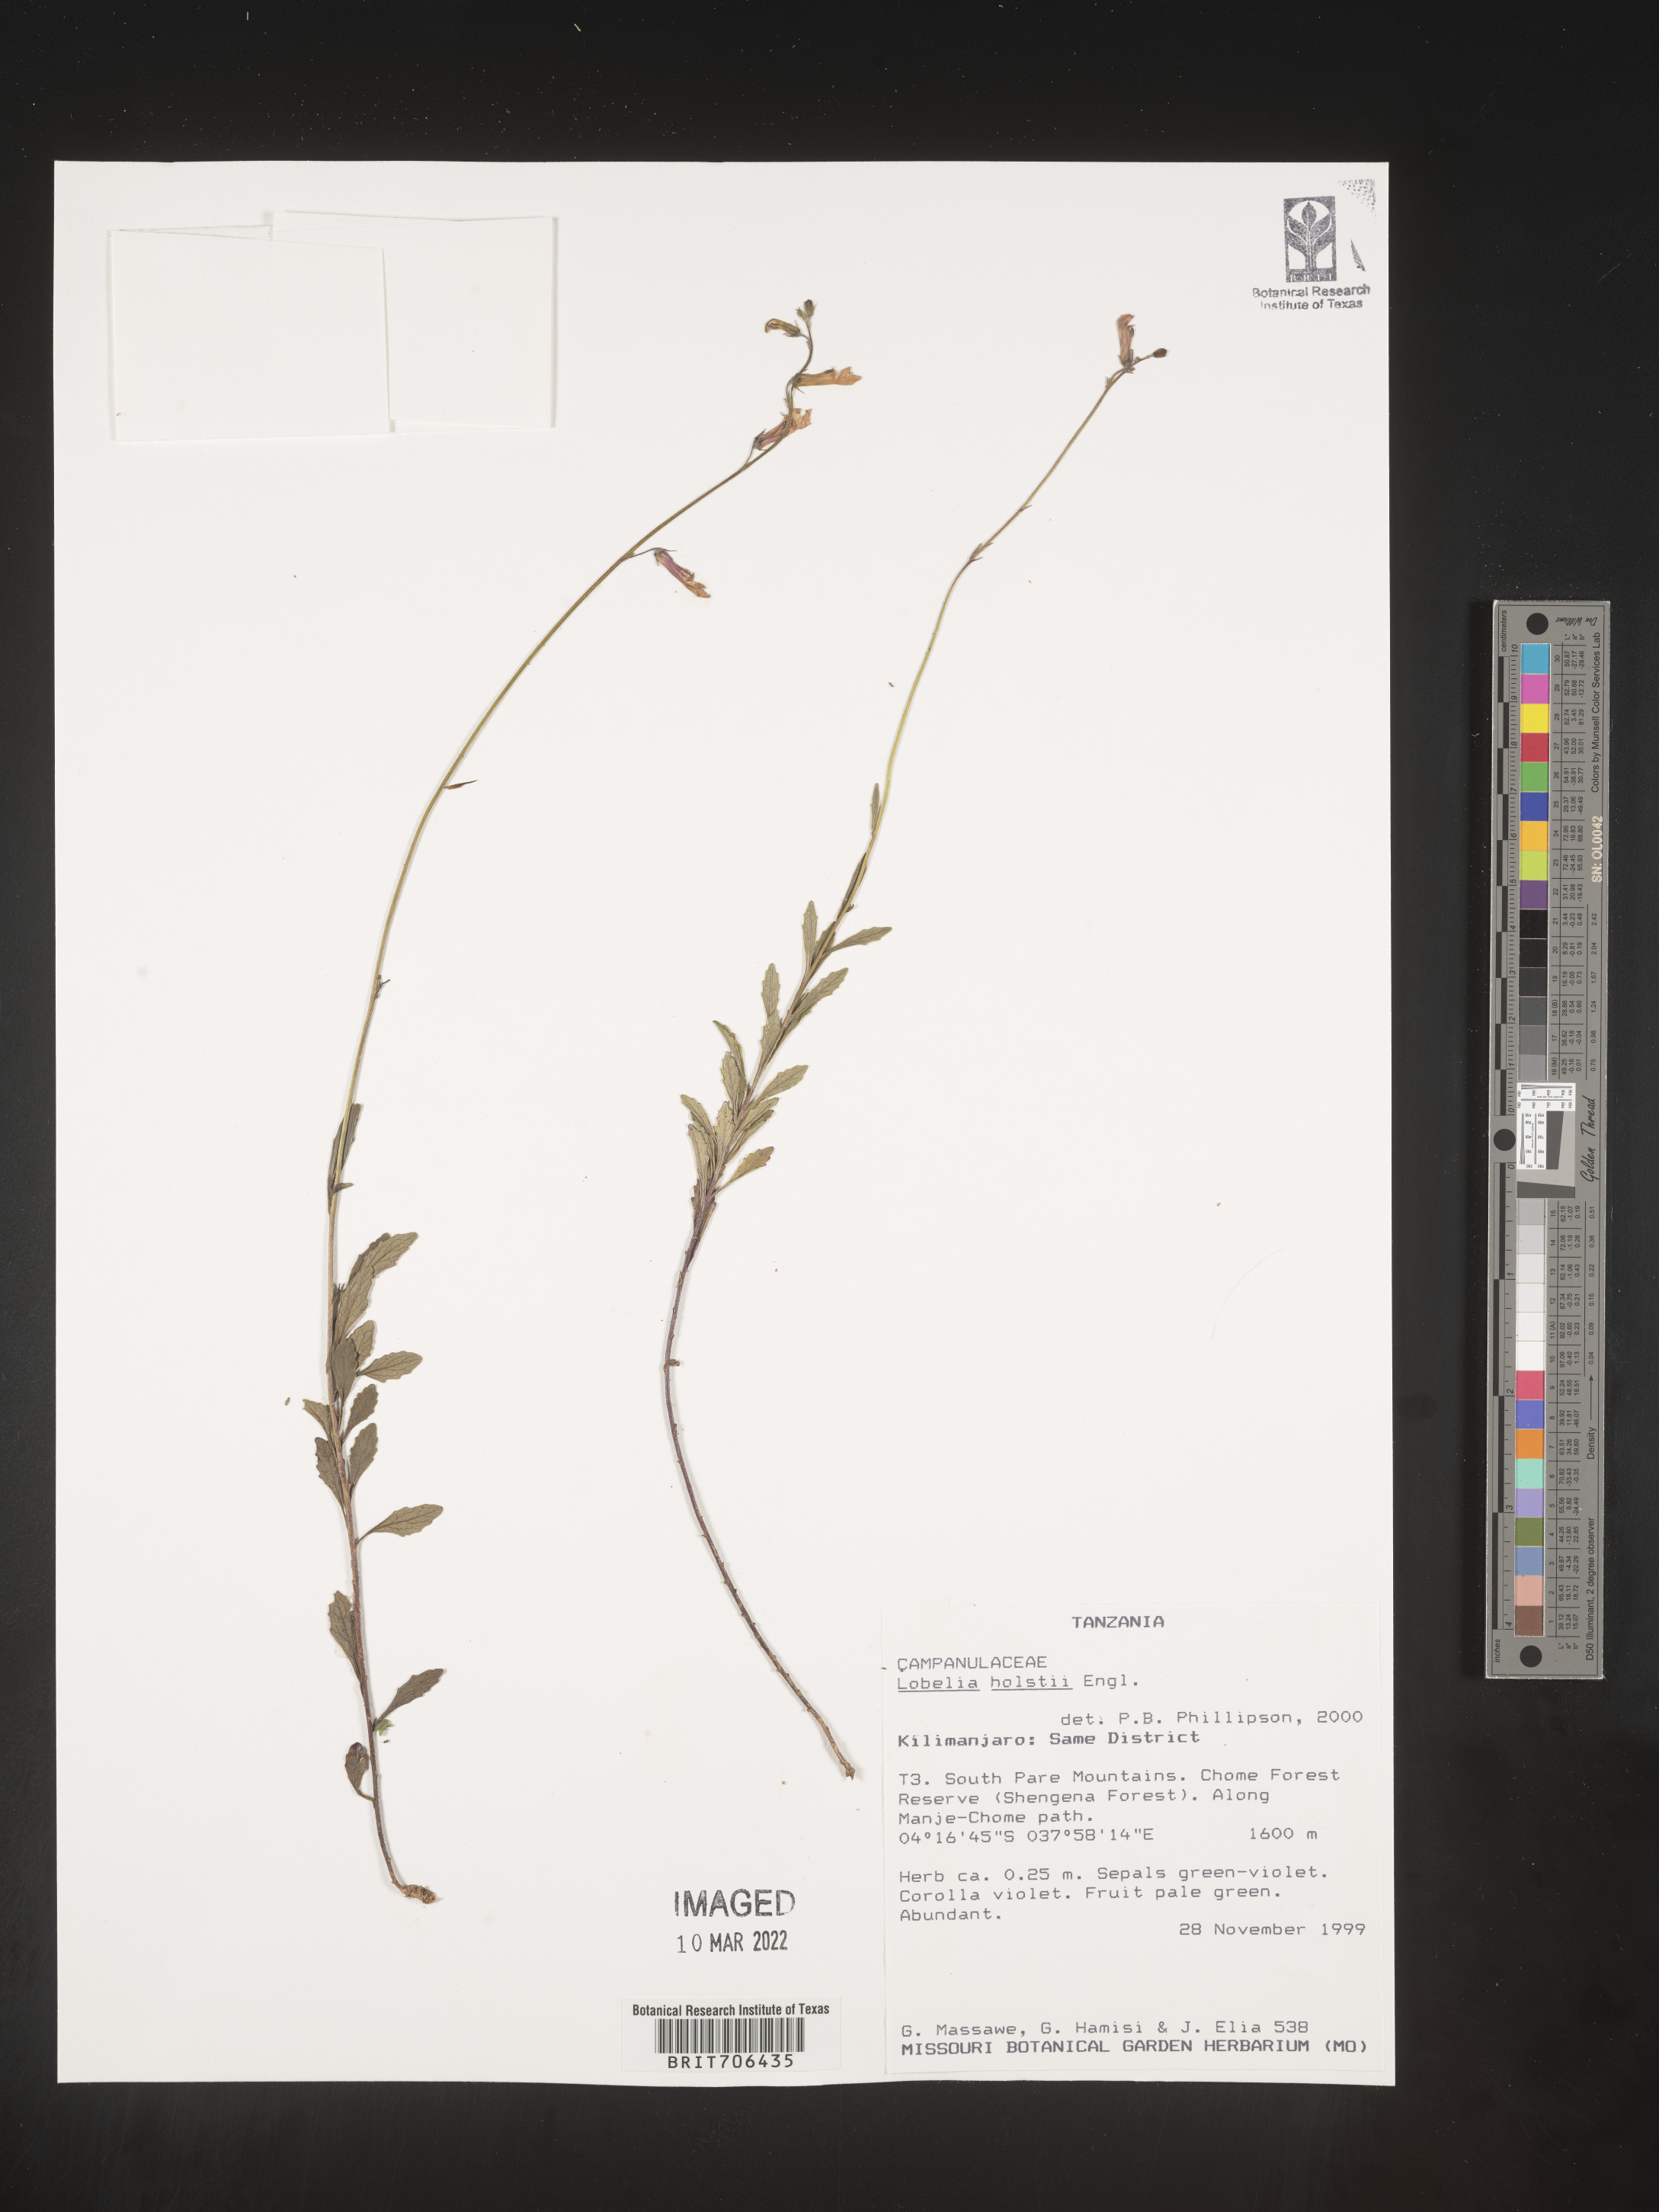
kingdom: Plantae
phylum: Tracheophyta
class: Magnoliopsida
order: Asterales
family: Campanulaceae
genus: Lobelia
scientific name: Lobelia
